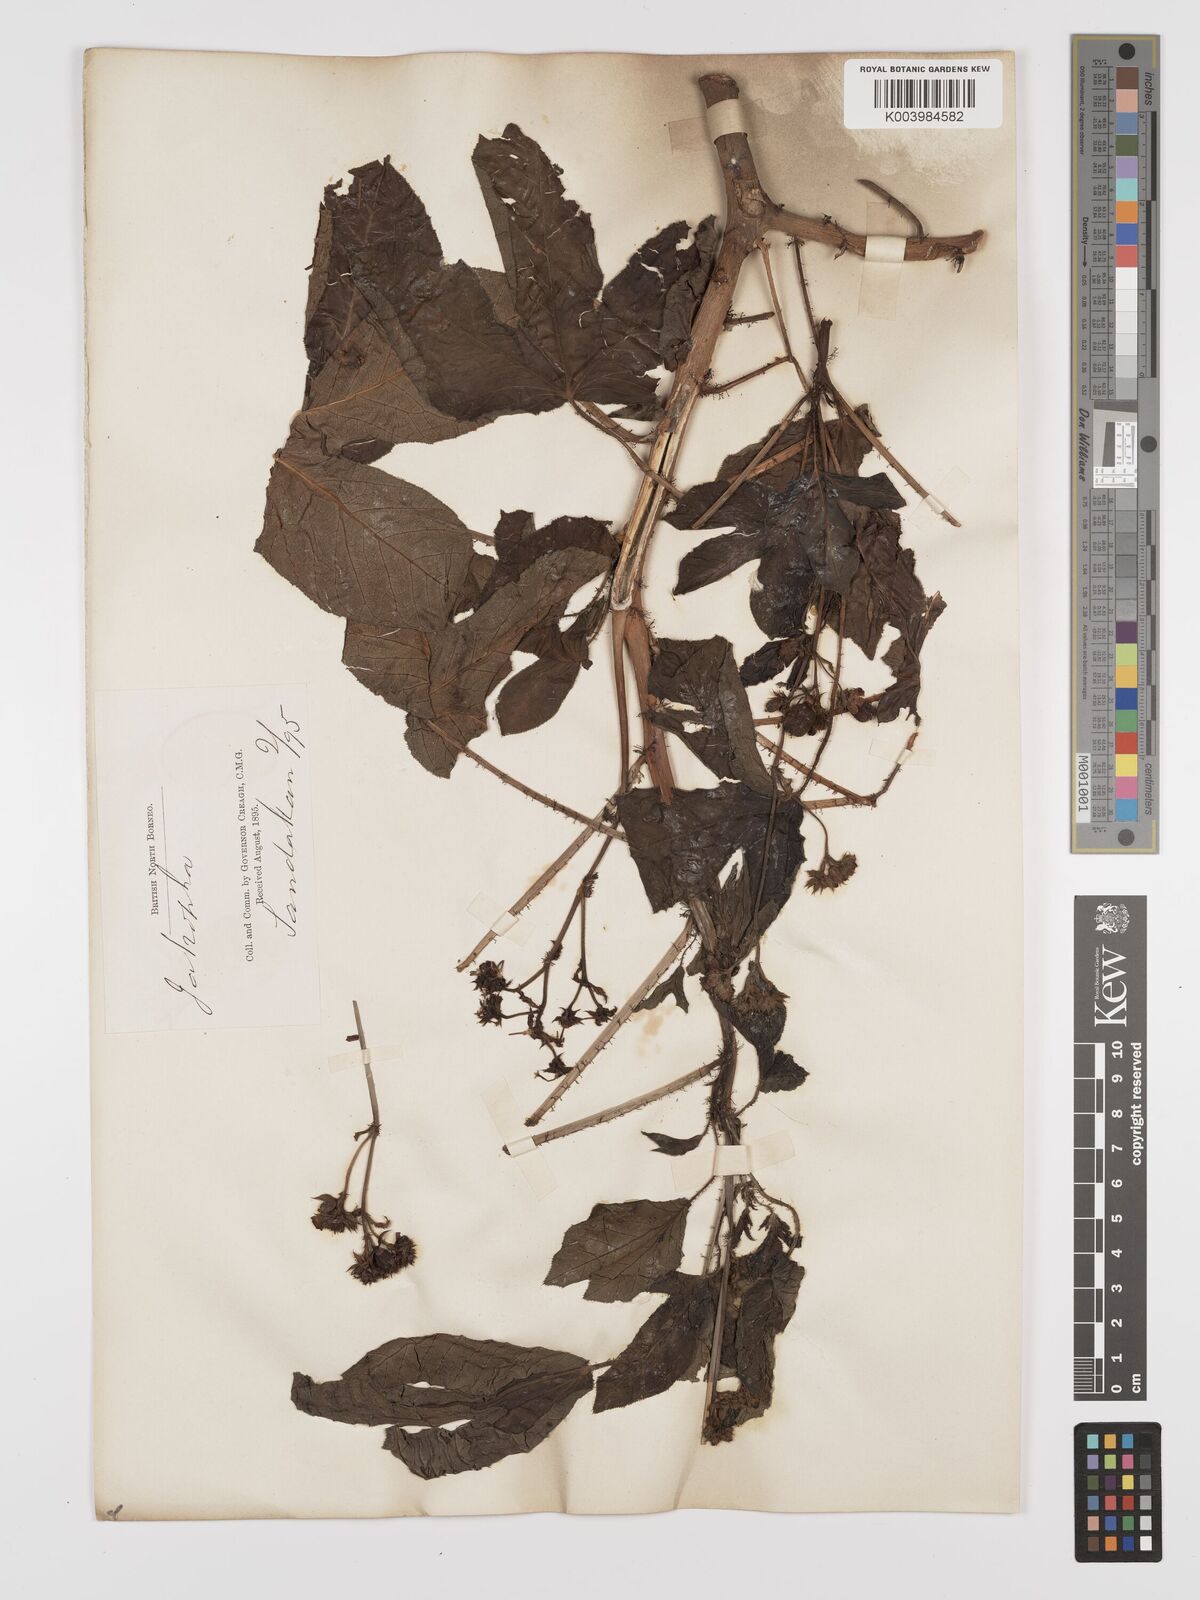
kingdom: Plantae
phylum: Tracheophyta
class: Magnoliopsida
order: Malpighiales
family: Euphorbiaceae
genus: Jatropha
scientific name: Jatropha gossypiifolia
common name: Bellyache bush
